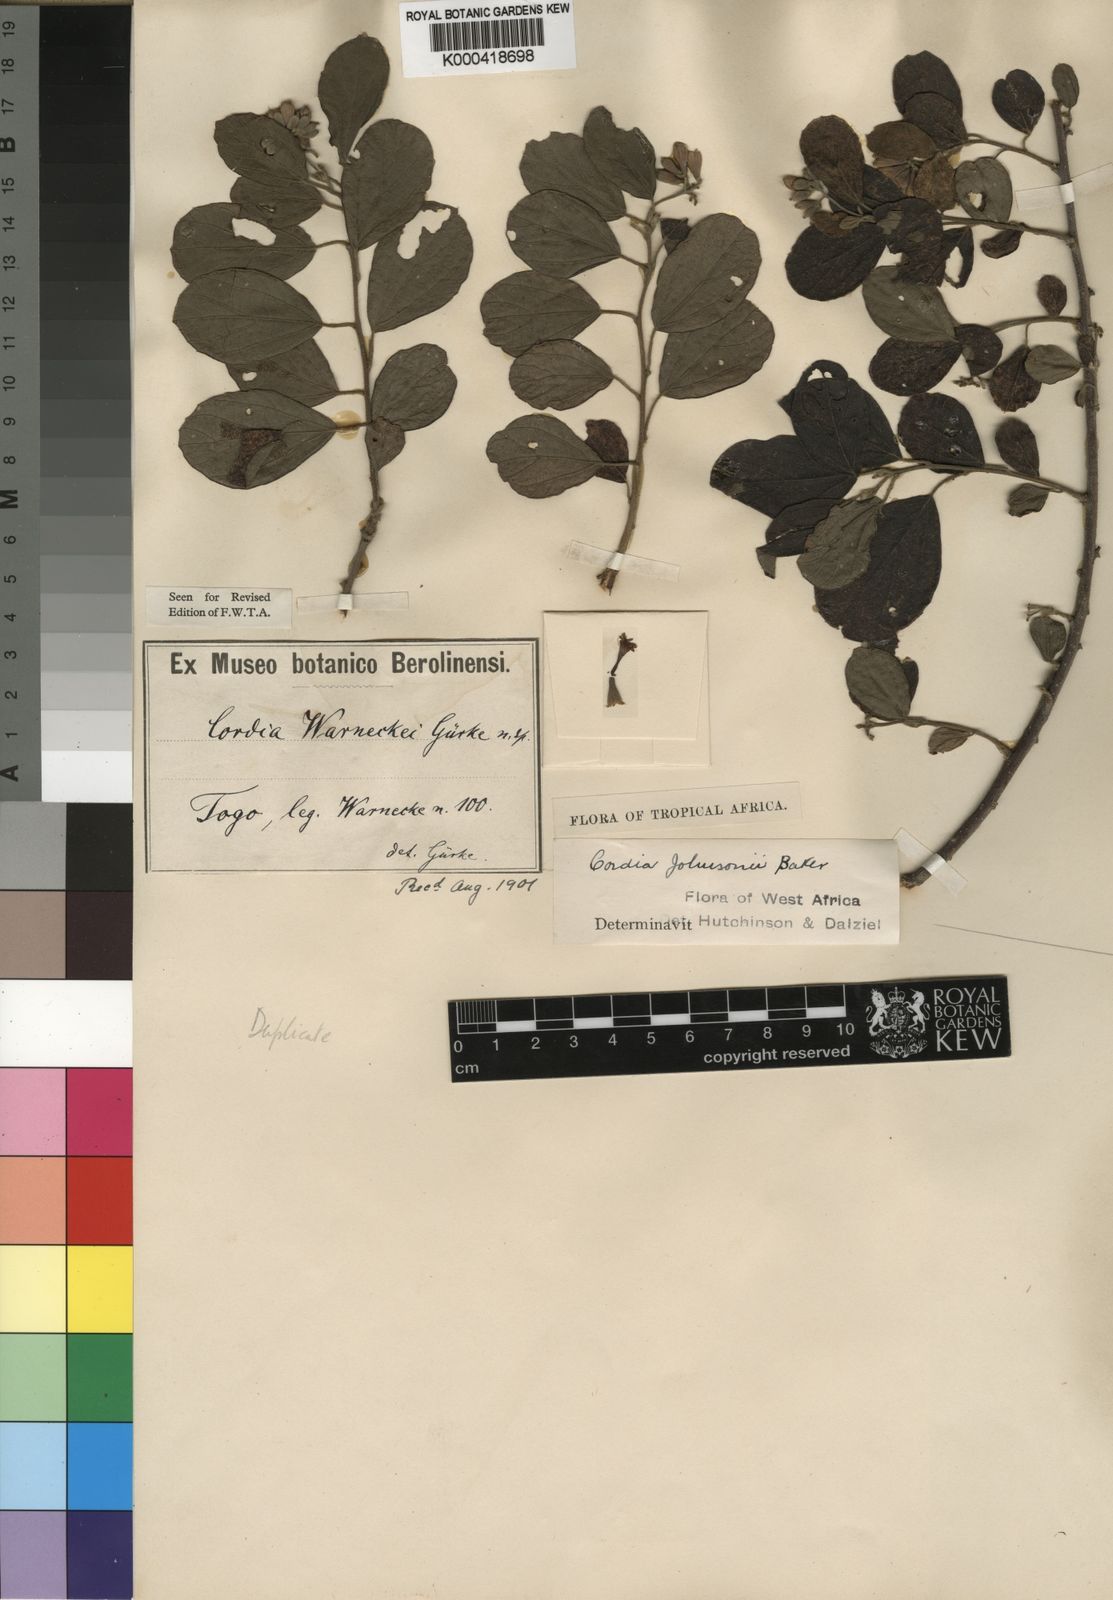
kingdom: Plantae
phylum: Tracheophyta
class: Magnoliopsida
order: Boraginales
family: Cordiaceae
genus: Cordia
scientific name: Cordia guineensis
